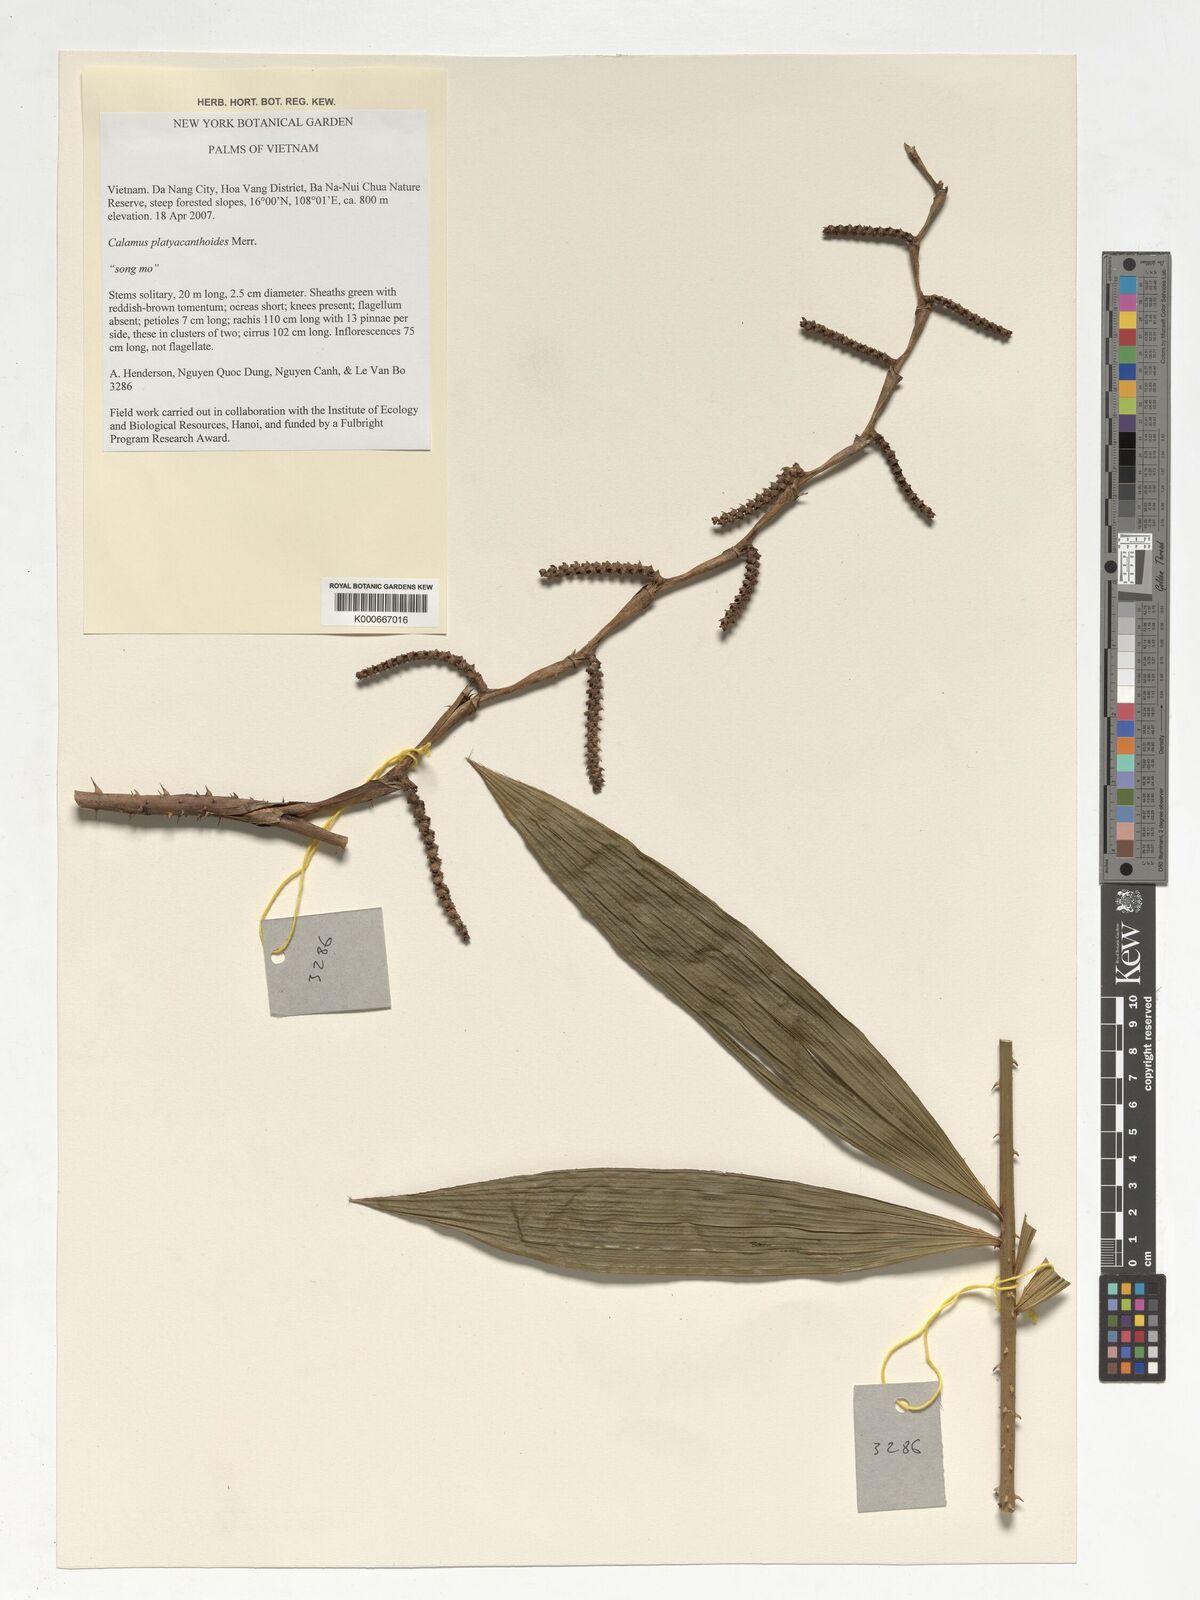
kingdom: Plantae
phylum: Tracheophyta
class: Liliopsida
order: Arecales
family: Arecaceae
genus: Calamus
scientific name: Calamus inermis
